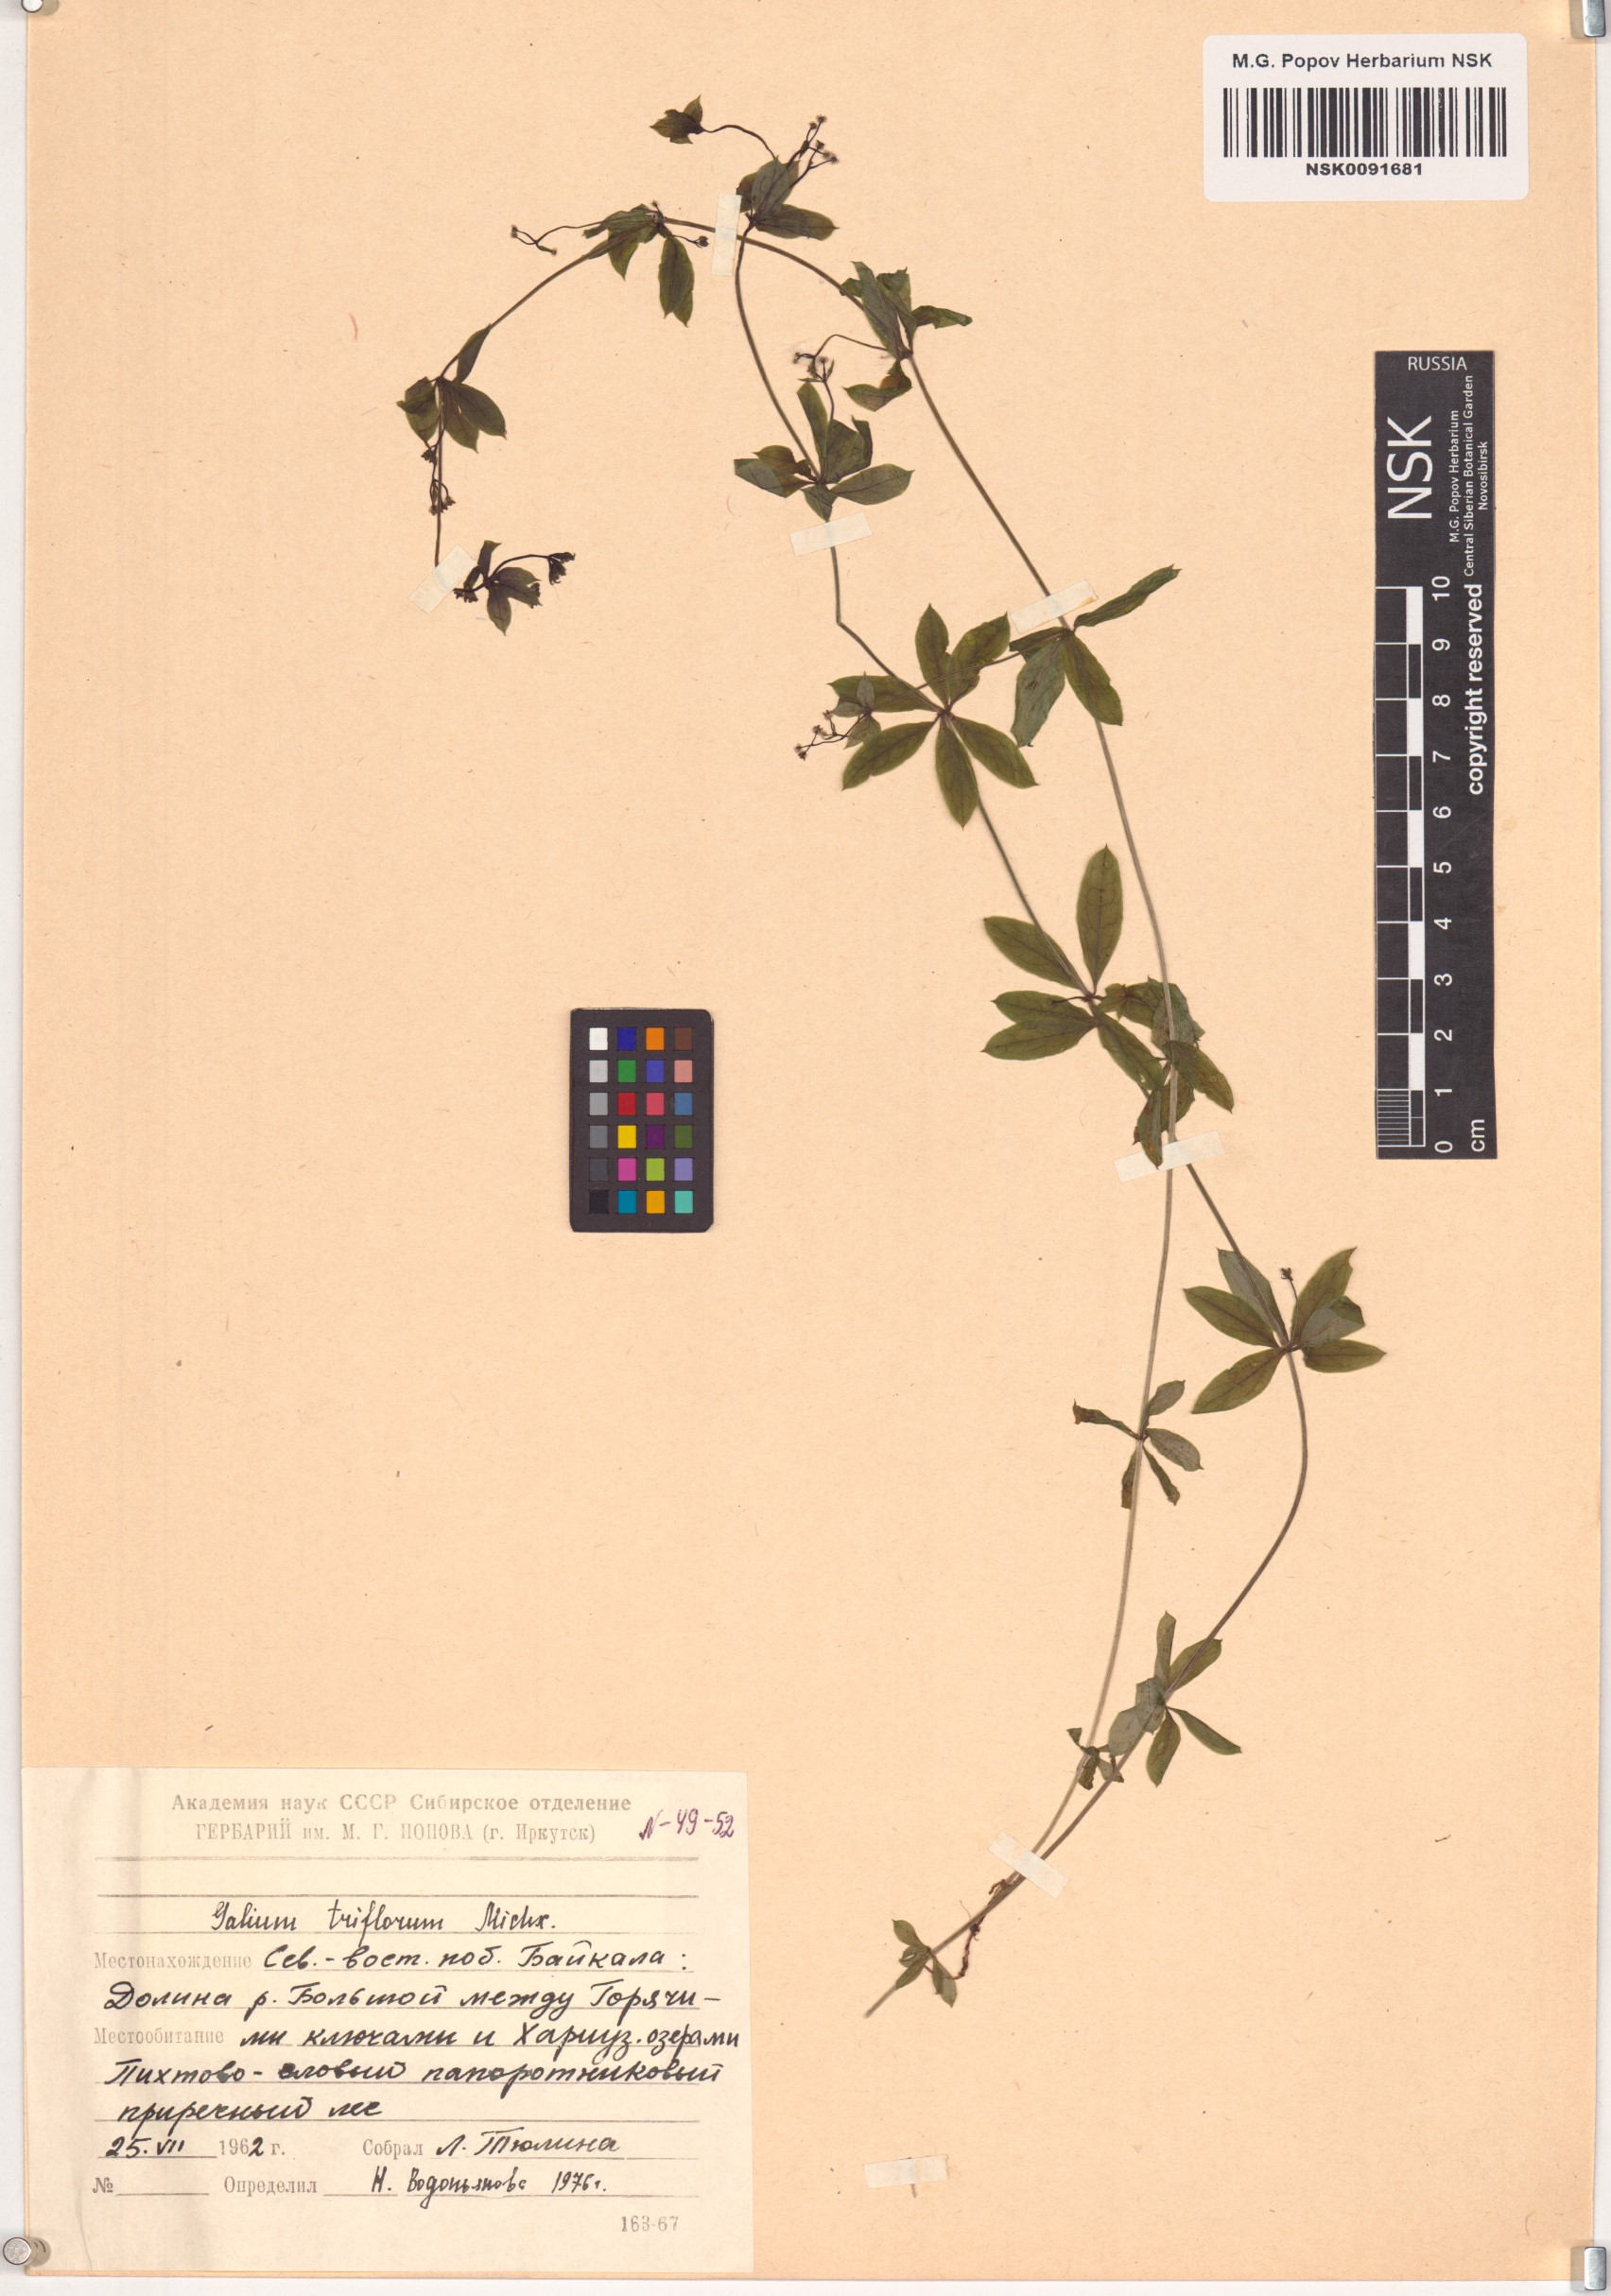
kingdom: Plantae
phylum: Tracheophyta
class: Magnoliopsida
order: Gentianales
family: Rubiaceae
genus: Galium
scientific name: Galium triflorum
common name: Fragrant bedstraw
